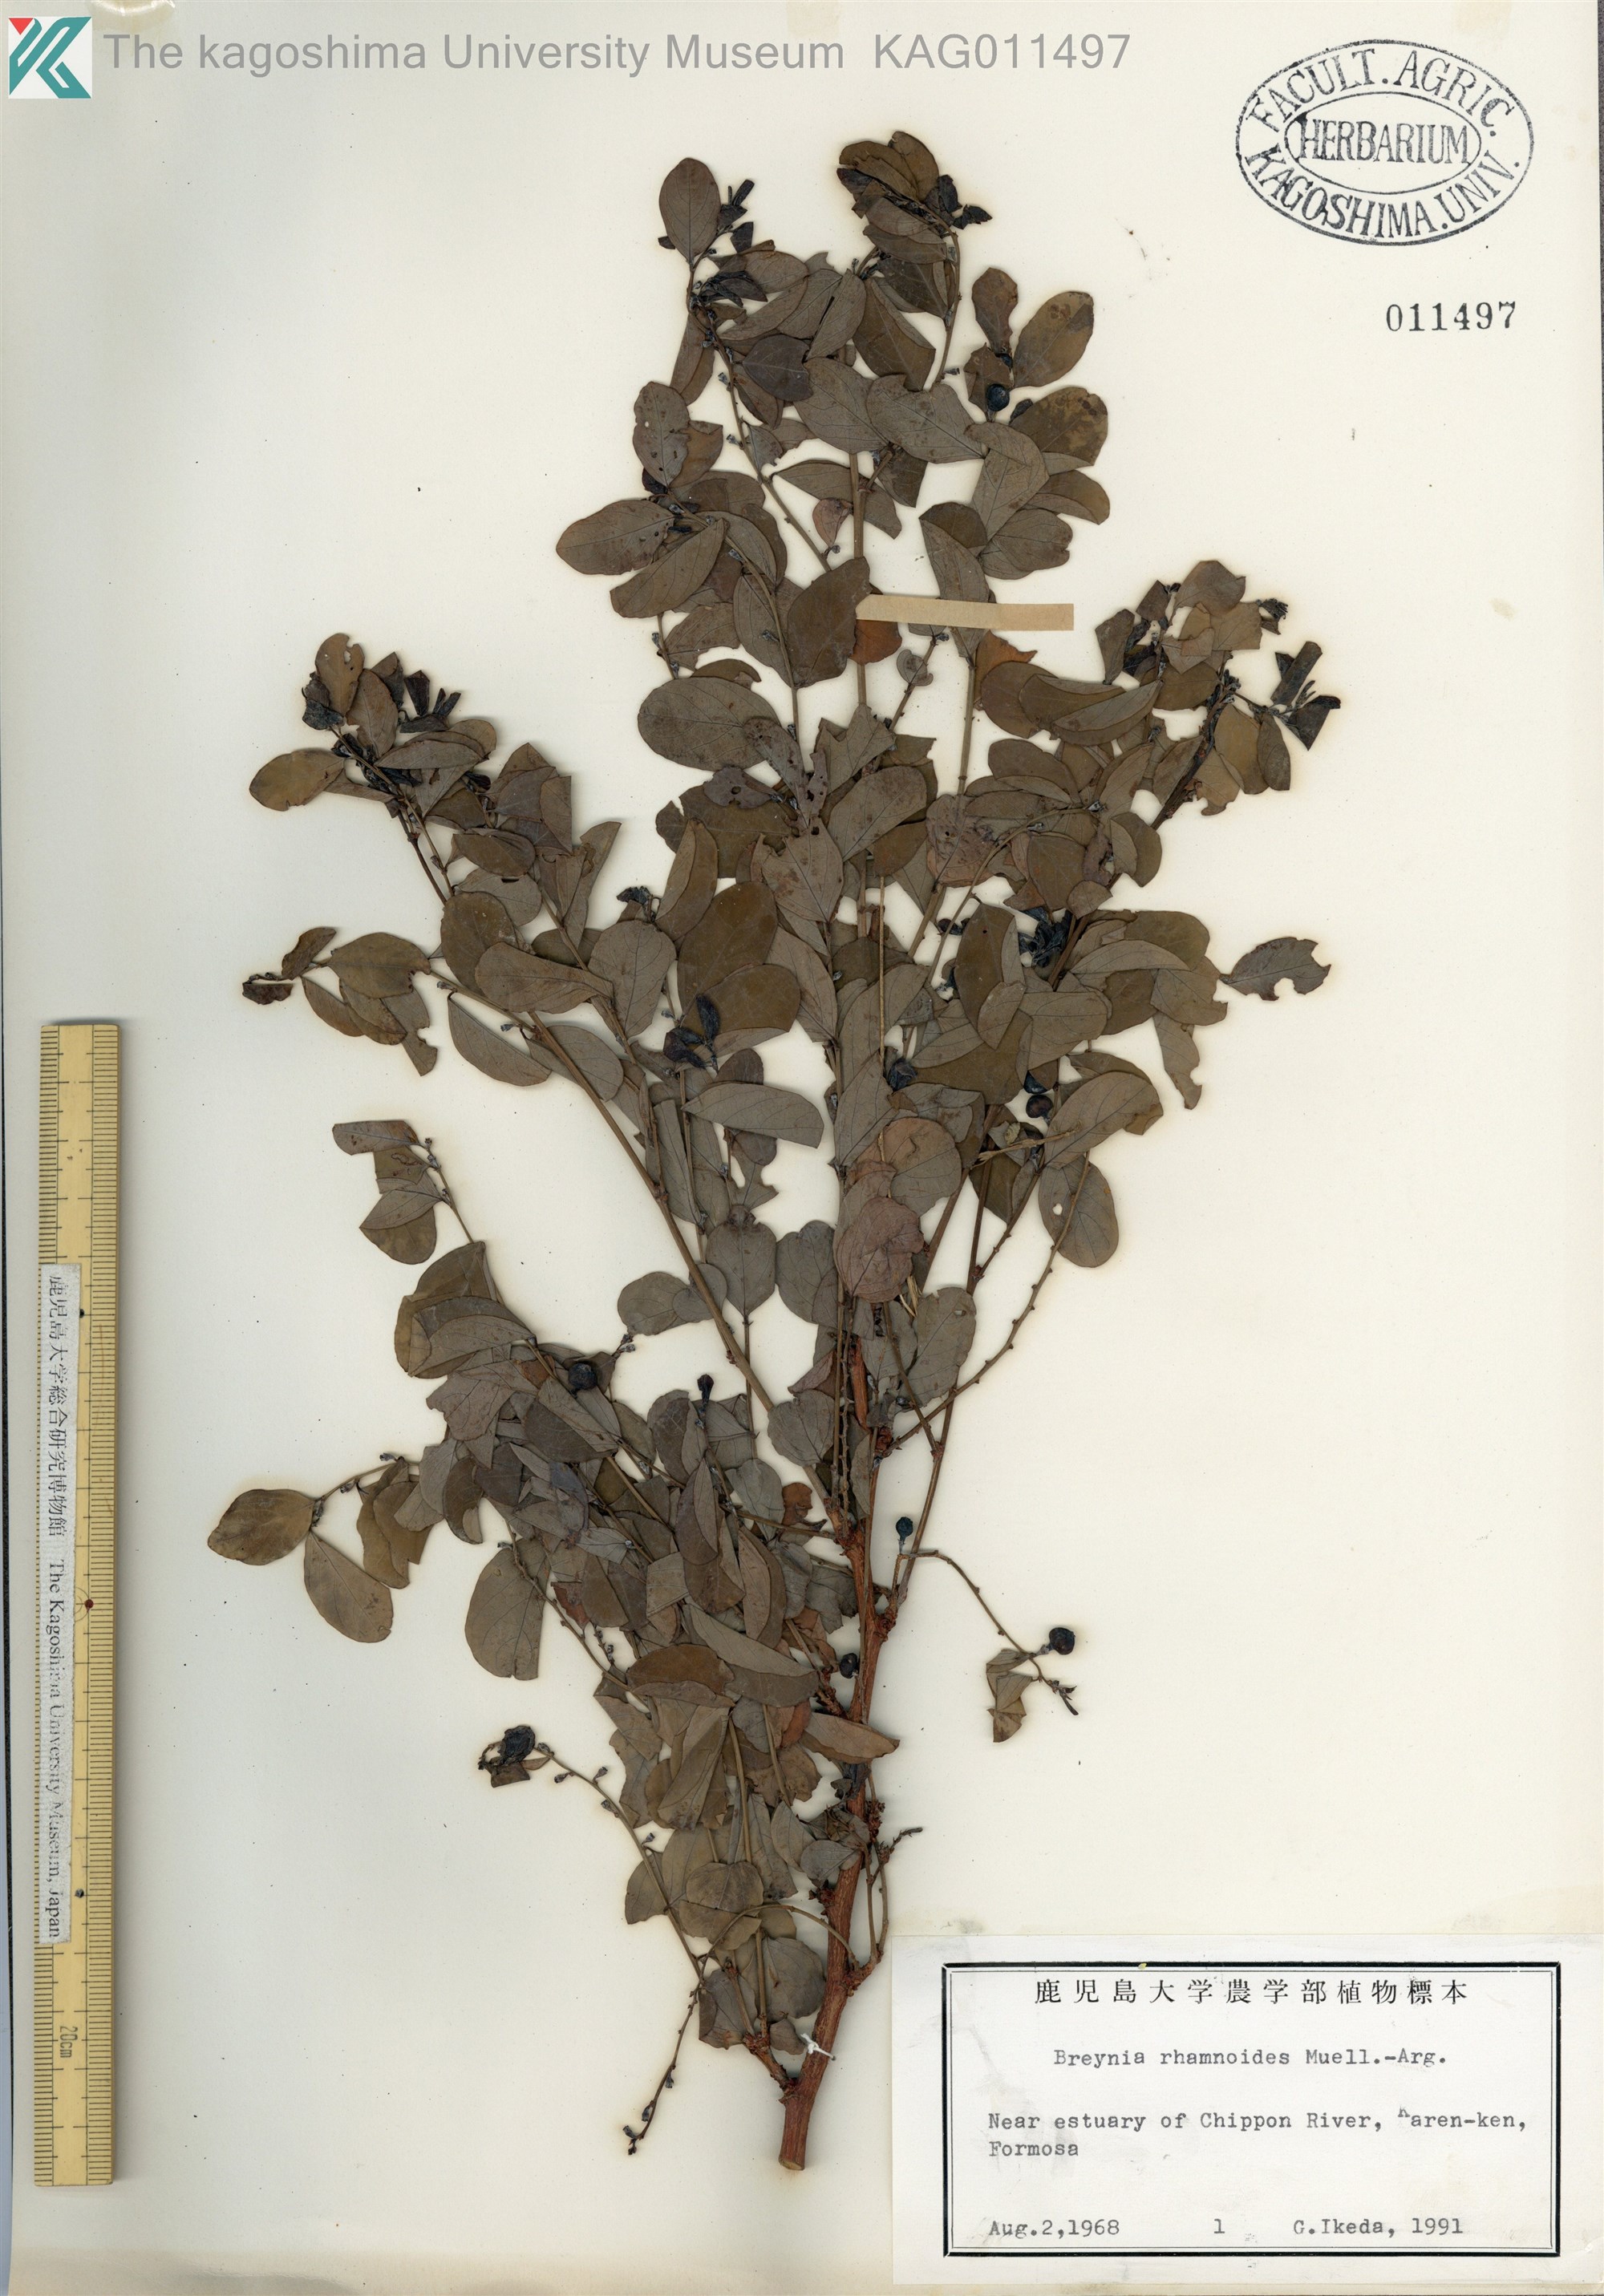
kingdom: Plantae
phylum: Tracheophyta
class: Magnoliopsida
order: Malpighiales
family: Phyllanthaceae
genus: Breynia
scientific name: Breynia vitis-idaea
